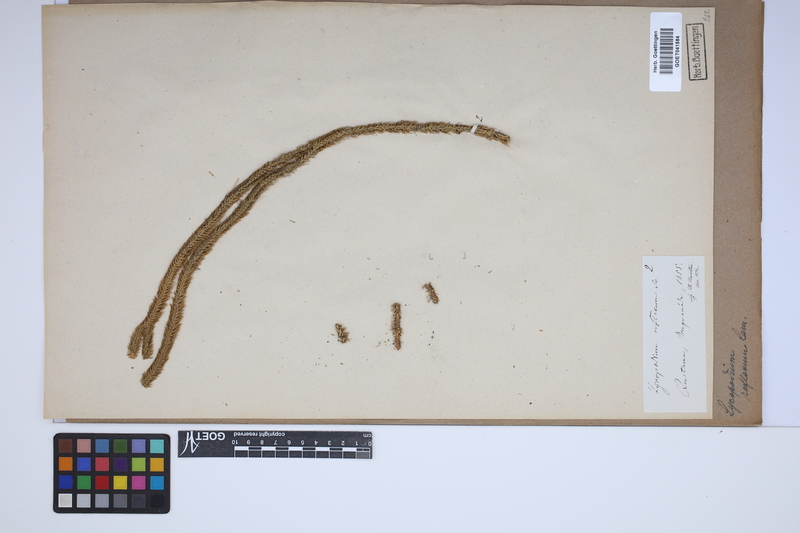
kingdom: Plantae
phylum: Tracheophyta
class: Lycopodiopsida
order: Lycopodiales
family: Lycopodiaceae
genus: Huperzia
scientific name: Huperzia lucidula
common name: Shining clubmoss
